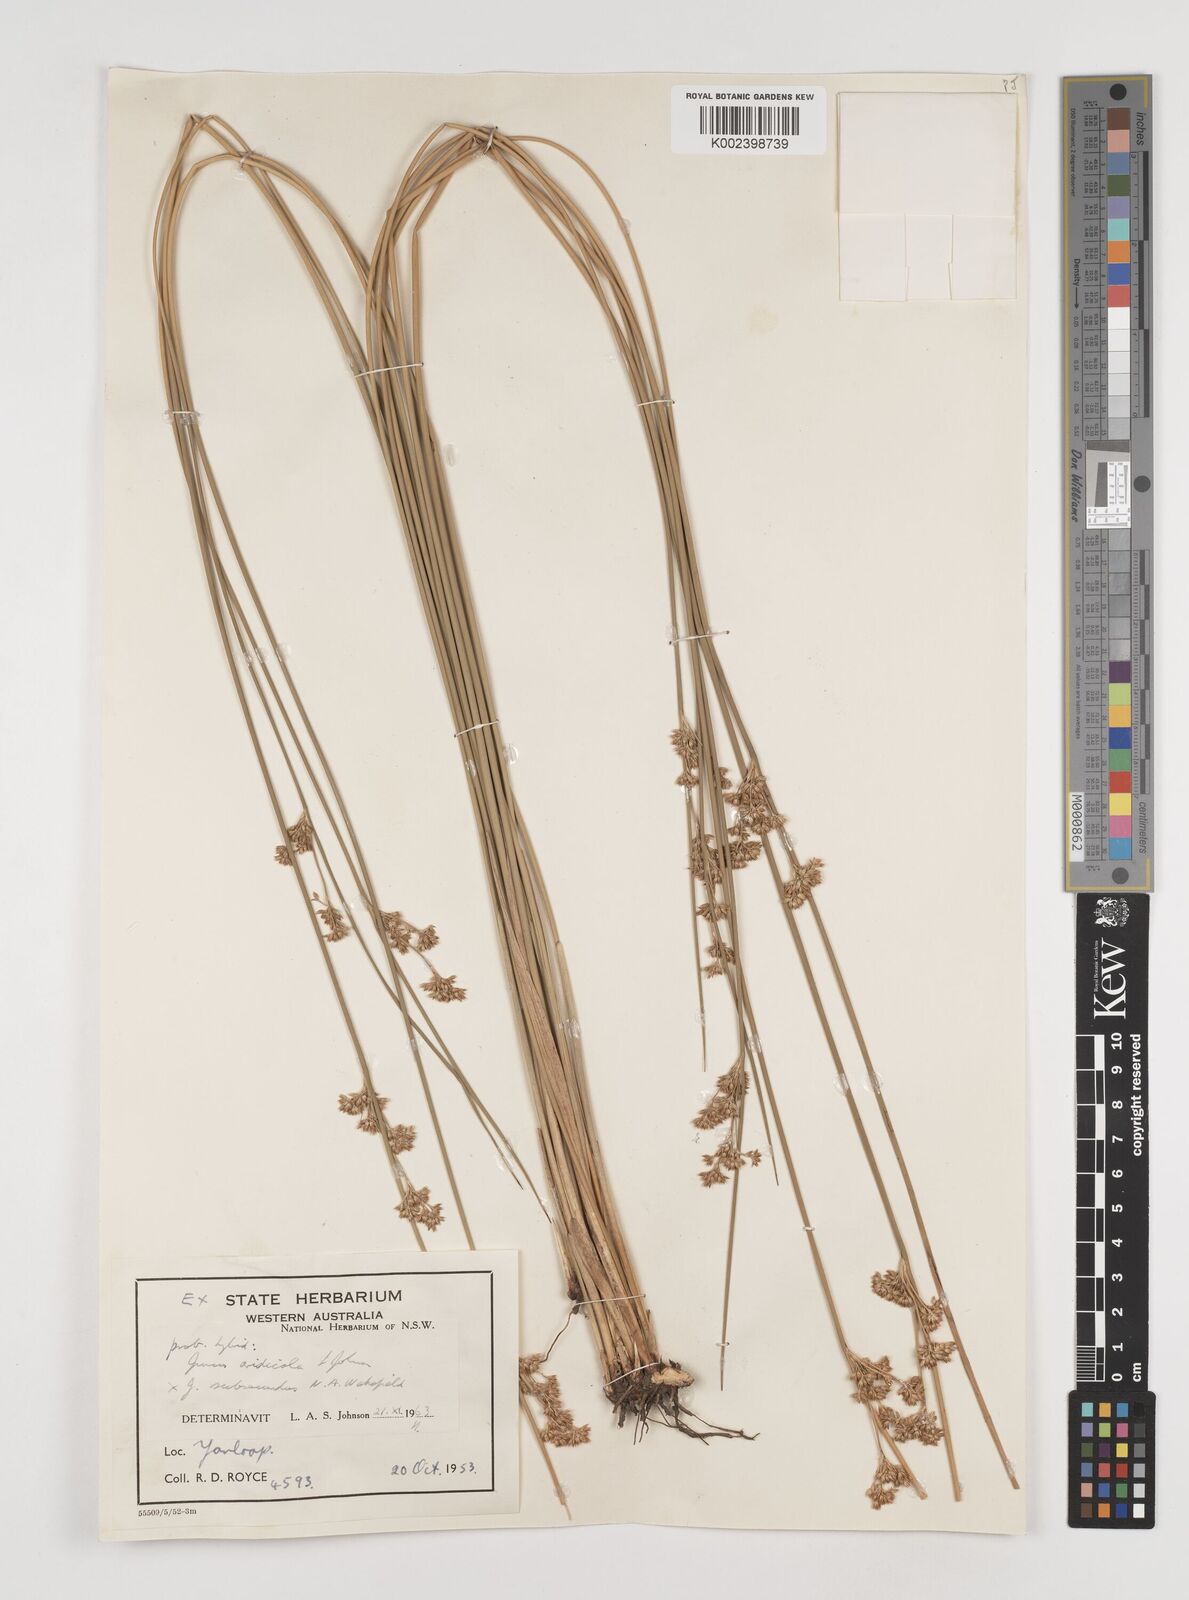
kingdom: Plantae
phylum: Tracheophyta
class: Liliopsida
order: Poales
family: Juncaceae
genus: Juncus
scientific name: Juncus aridicola
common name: Tussock rush
